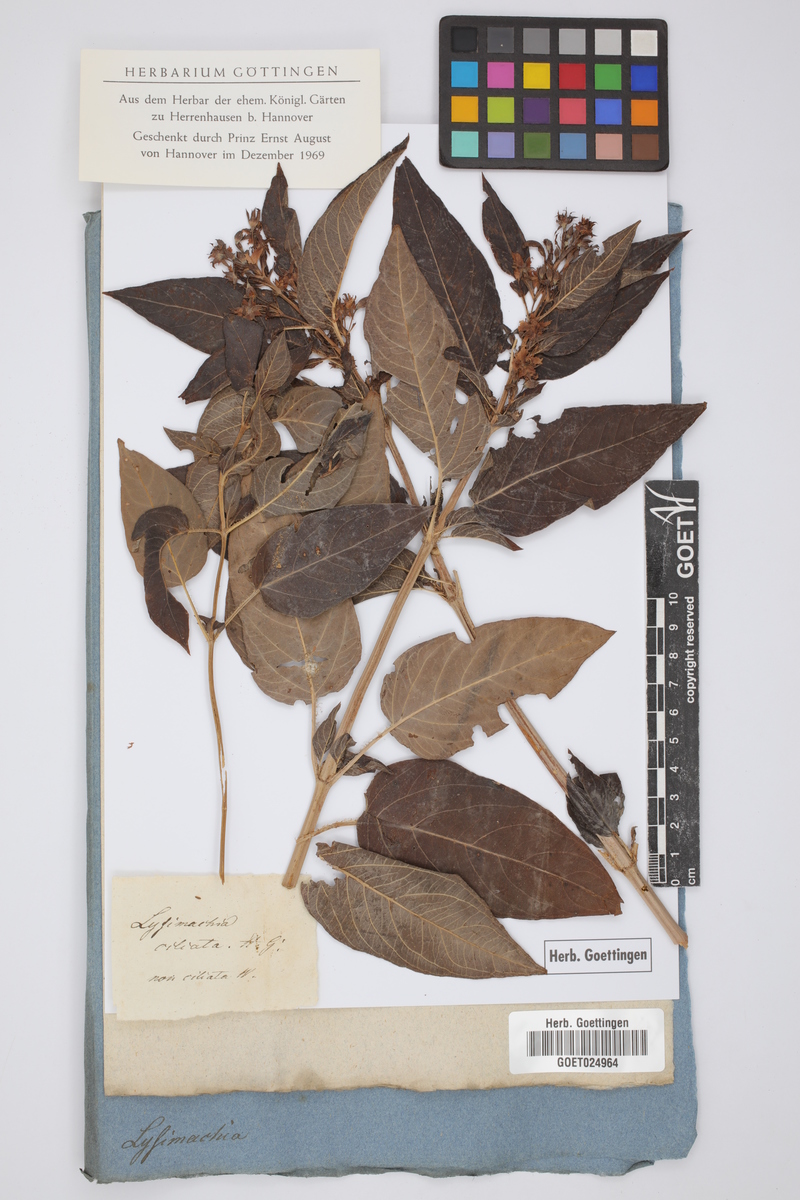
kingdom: Plantae
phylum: Tracheophyta
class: Magnoliopsida
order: Ericales
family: Primulaceae
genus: Lysimachia
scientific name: Lysimachia ciliata
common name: Fringed loosestrife
